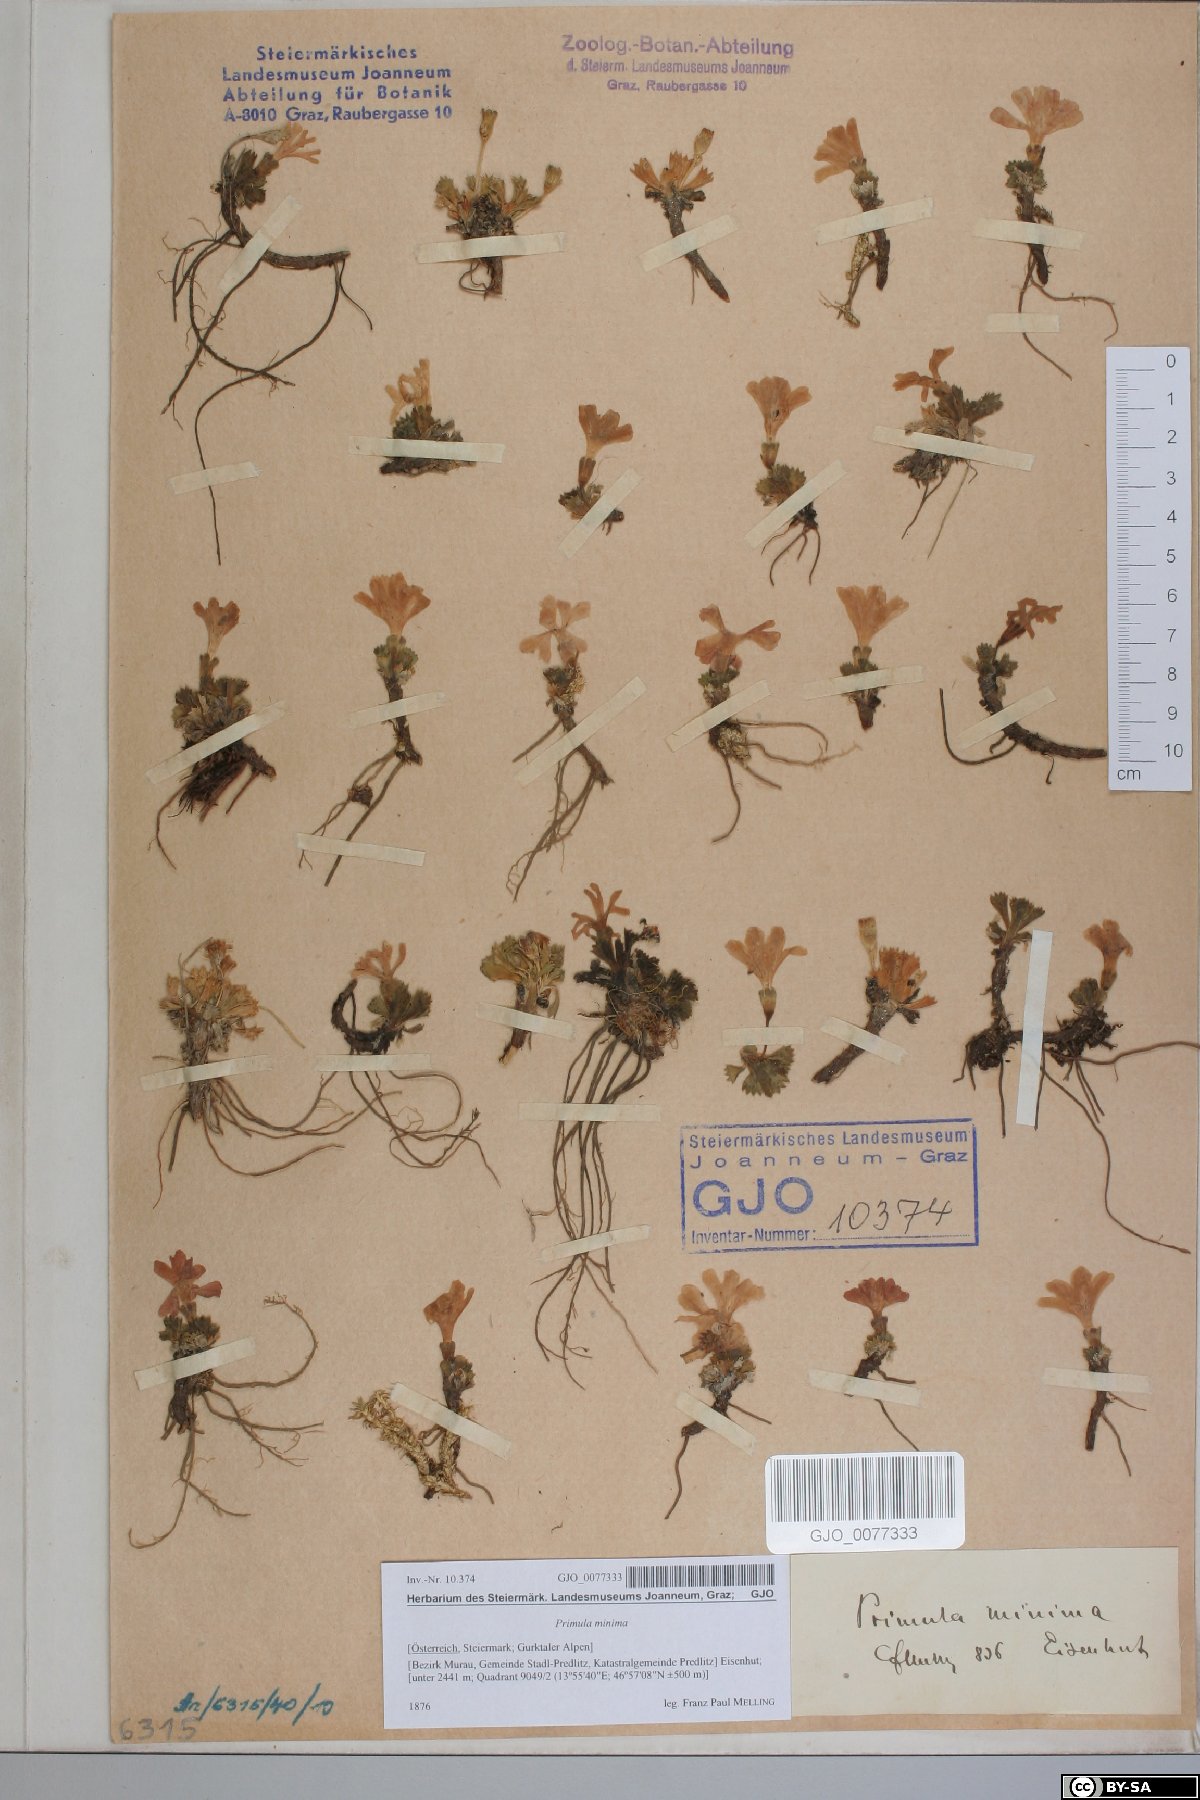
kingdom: Plantae
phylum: Tracheophyta
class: Magnoliopsida
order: Ericales
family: Primulaceae
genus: Primula
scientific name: Primula minima
